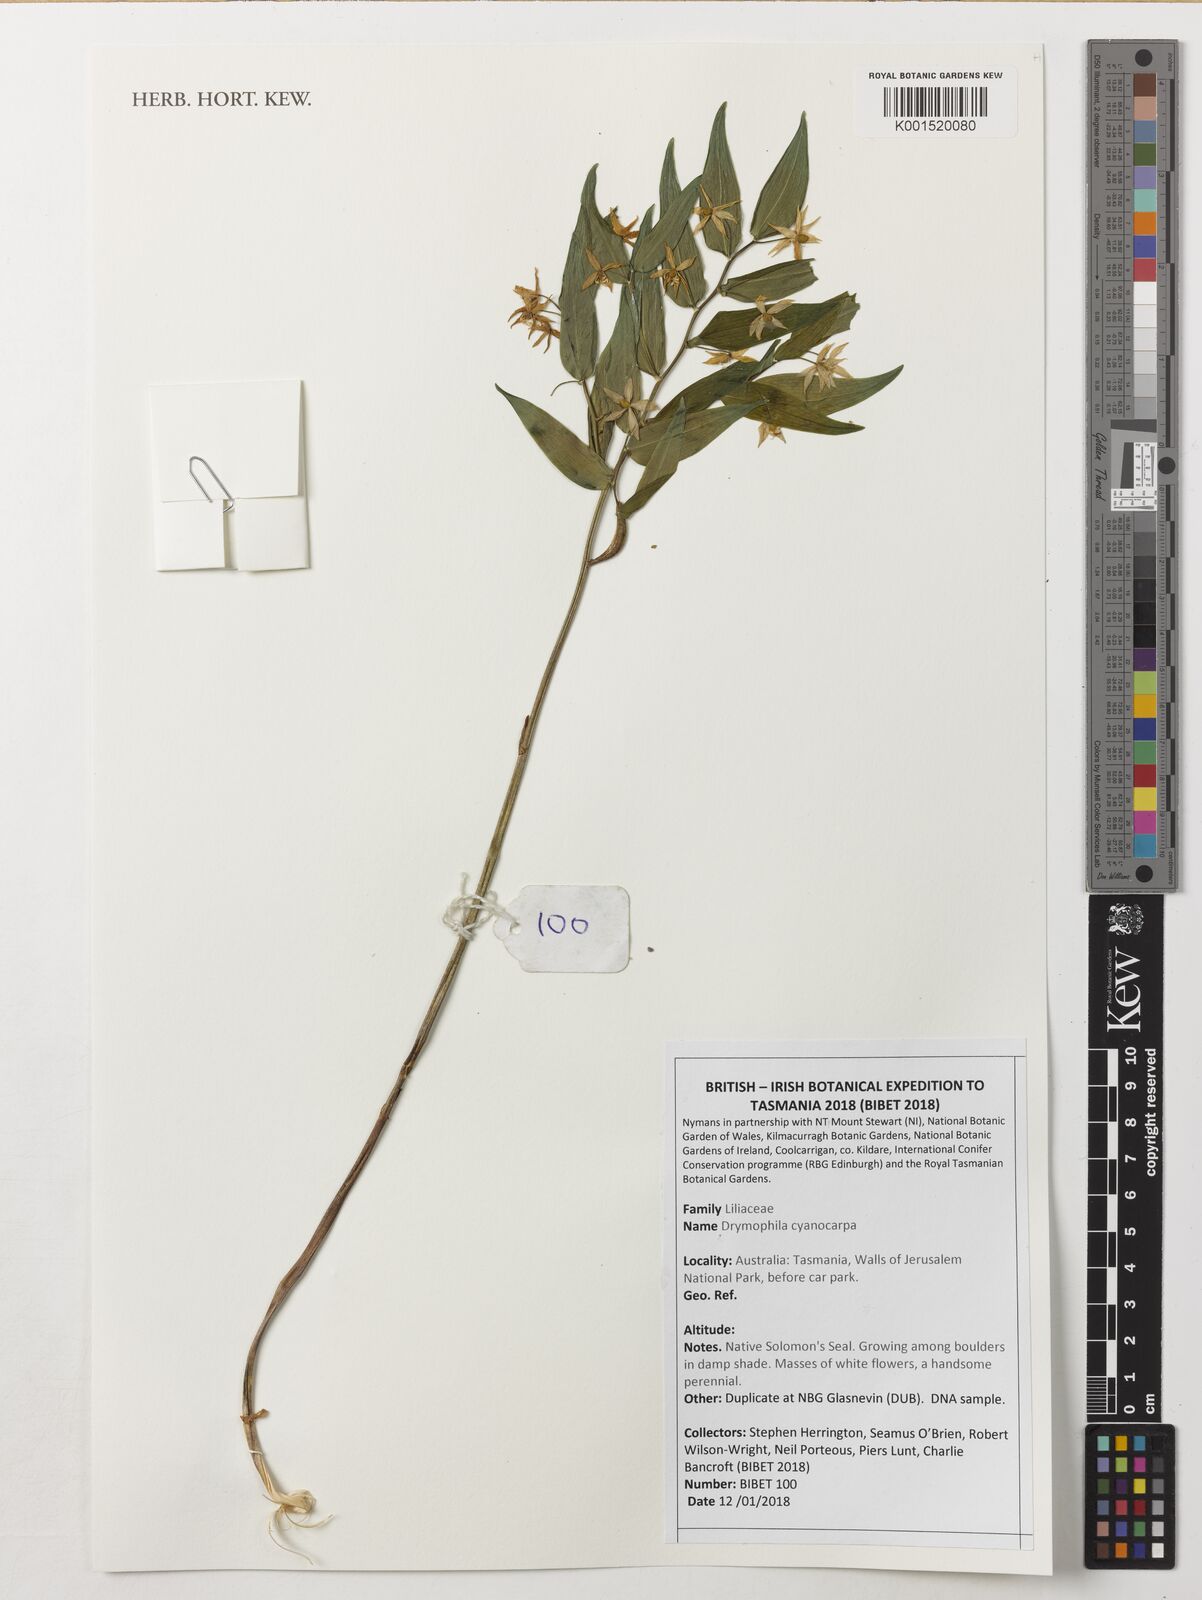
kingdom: Plantae
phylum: Tracheophyta
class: Liliopsida
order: Liliales
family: Alstroemeriaceae
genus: Drymophila
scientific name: Drymophila cyanocarpa
